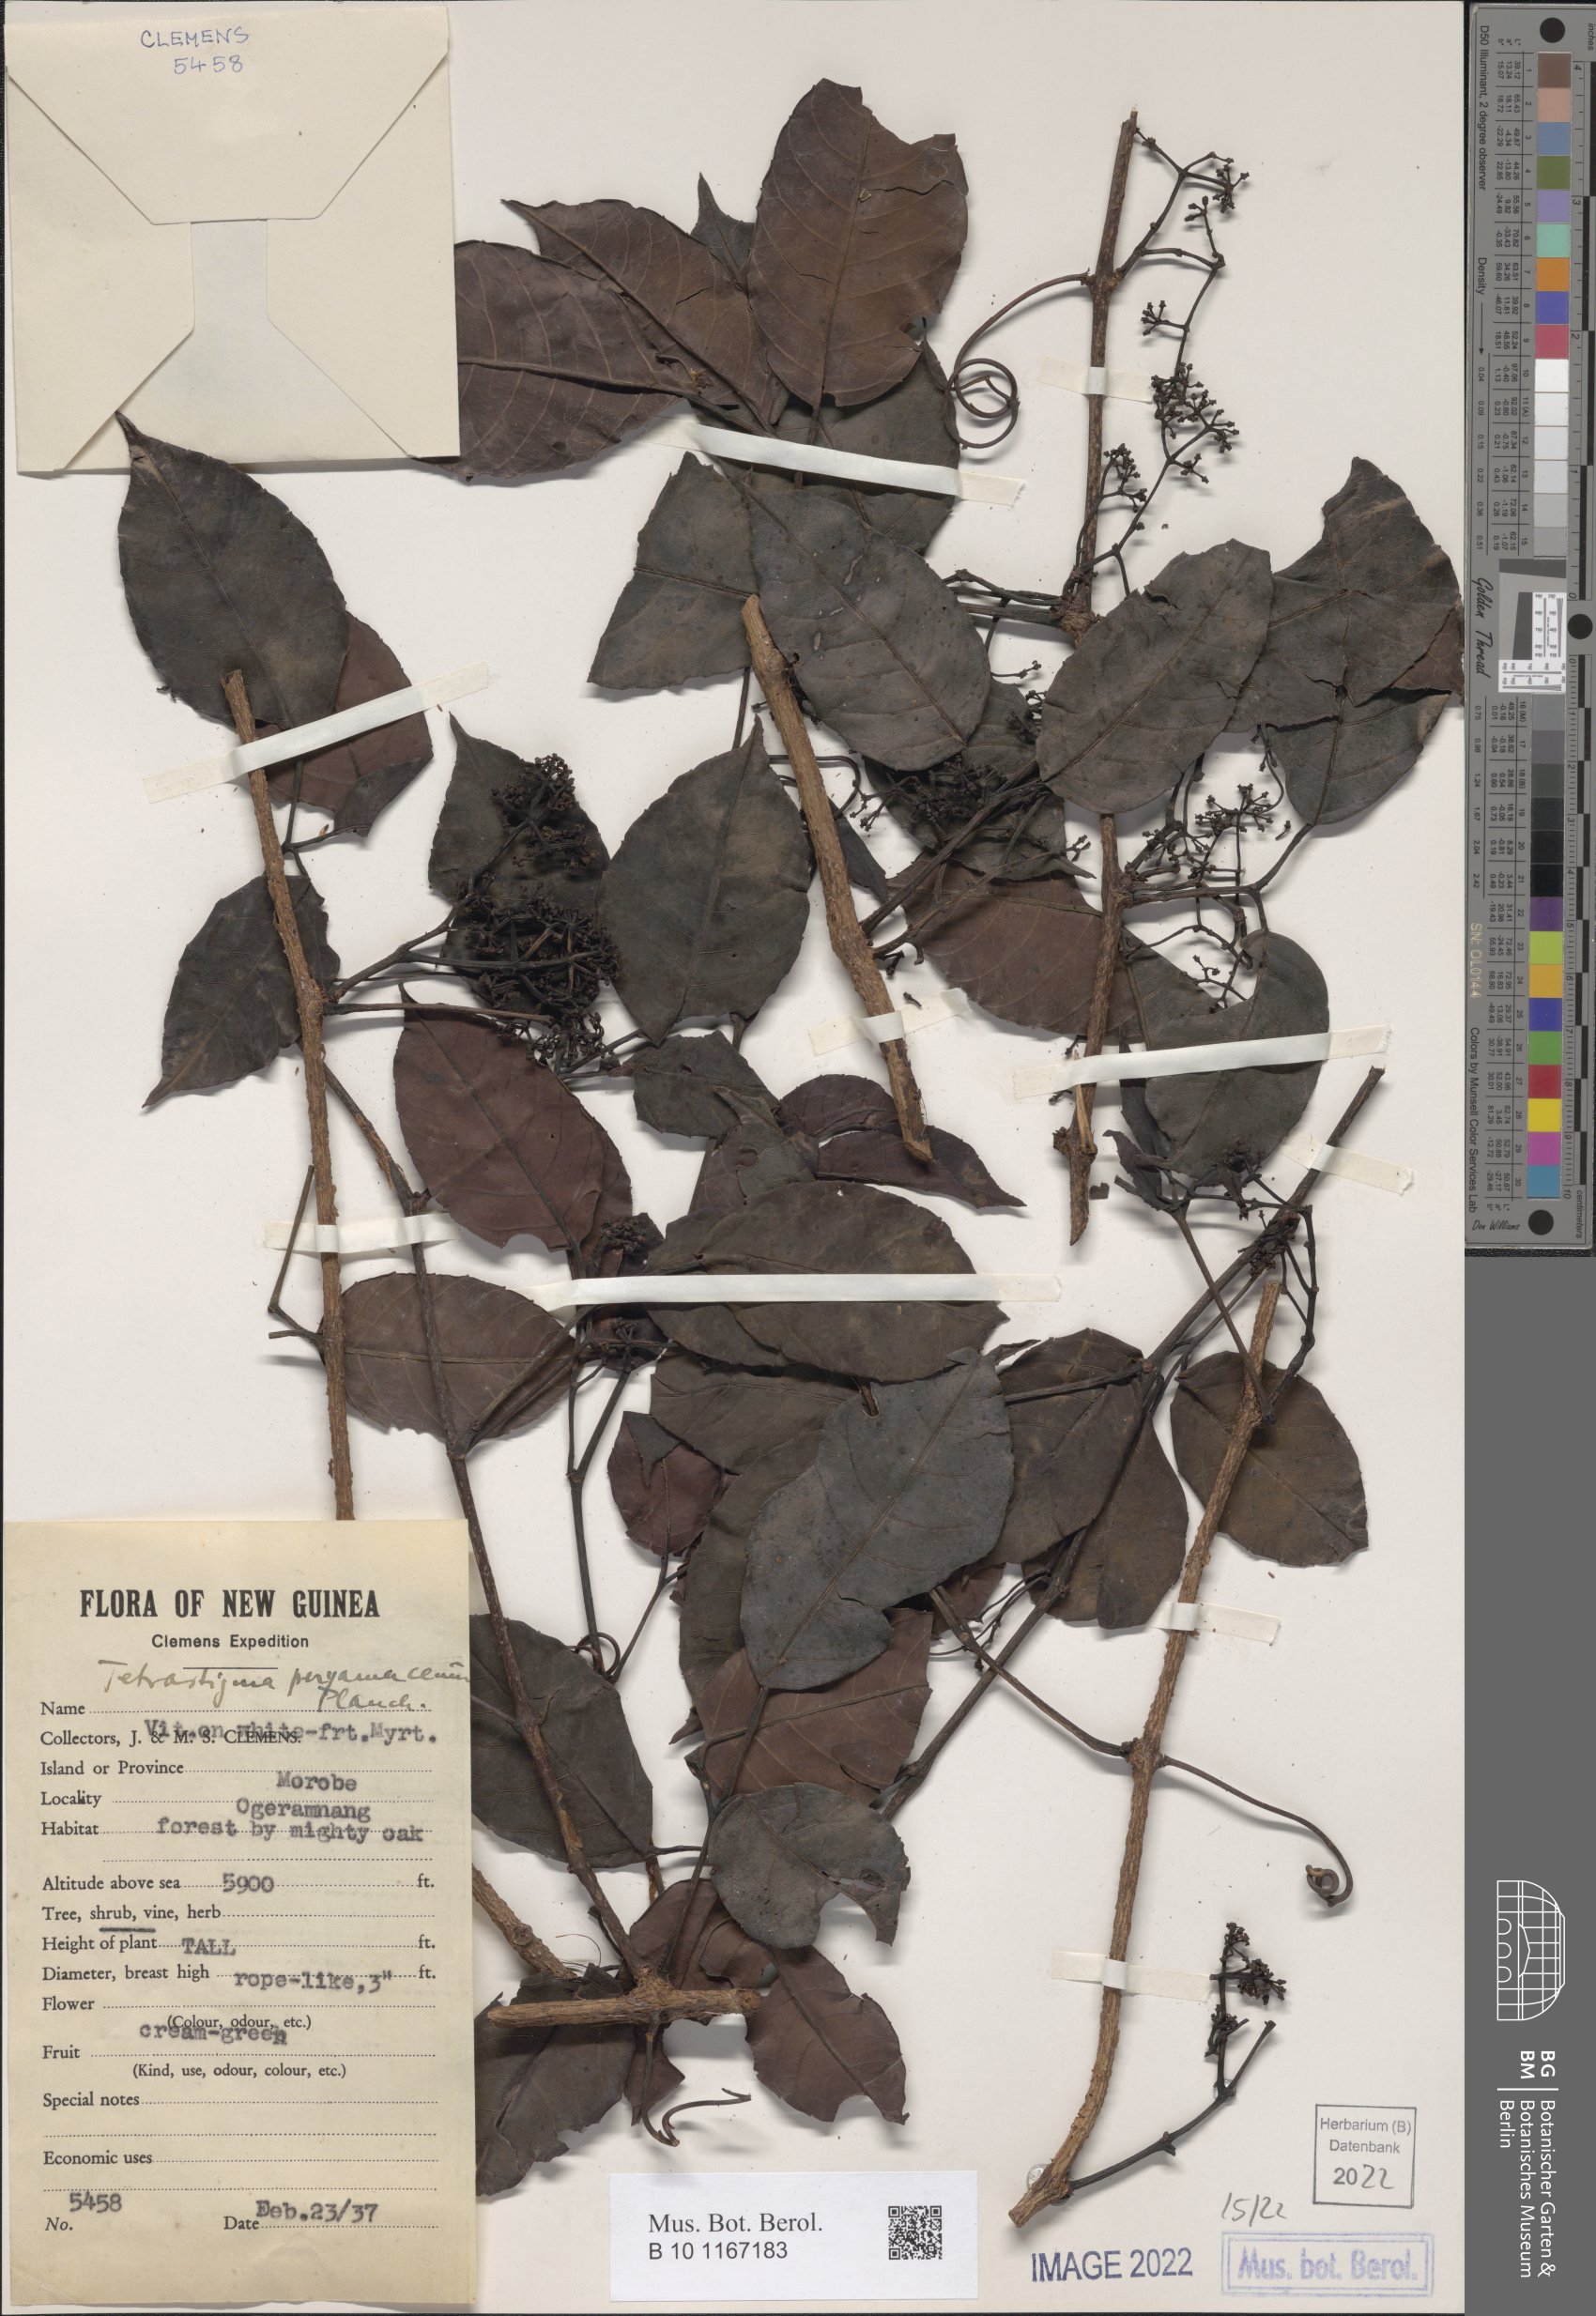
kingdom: Plantae
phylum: Tracheophyta
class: Magnoliopsida
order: Vitales
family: Vitaceae
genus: Tetrastigma
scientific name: Tetrastigma pergamaceum
